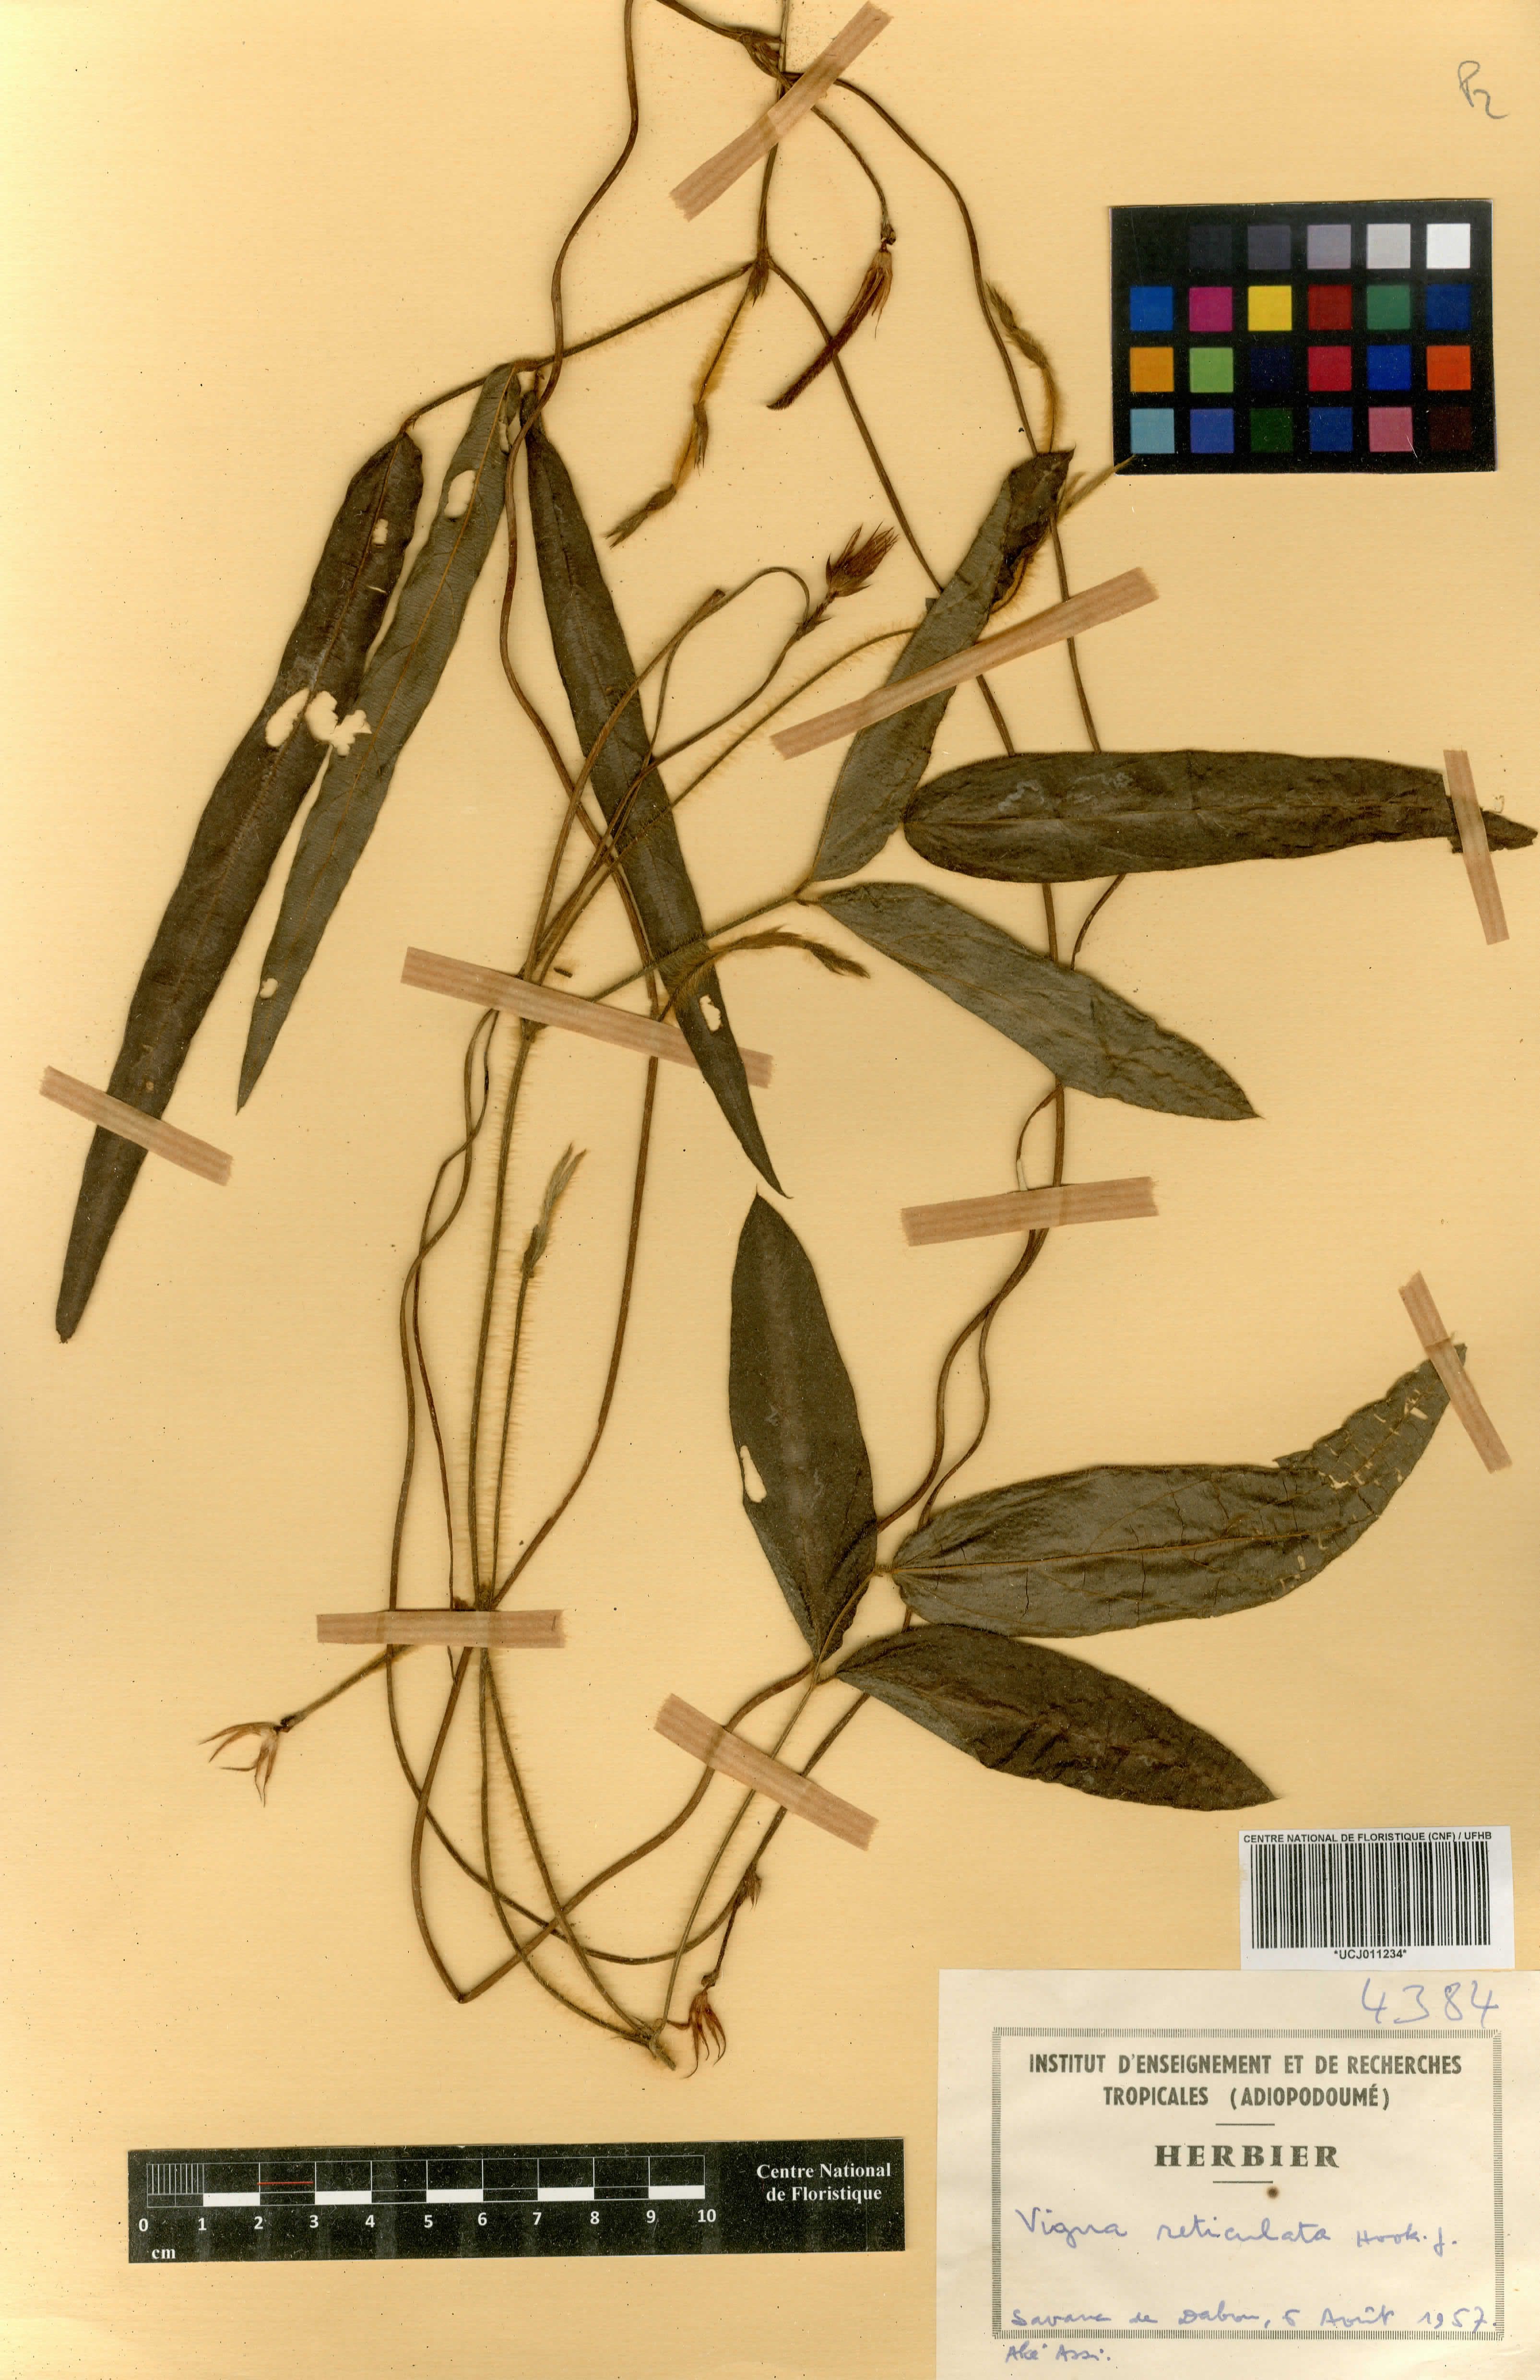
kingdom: Plantae
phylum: Tracheophyta
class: Magnoliopsida
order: Fabales
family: Fabaceae
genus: Vigna
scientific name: Vigna reticulata
